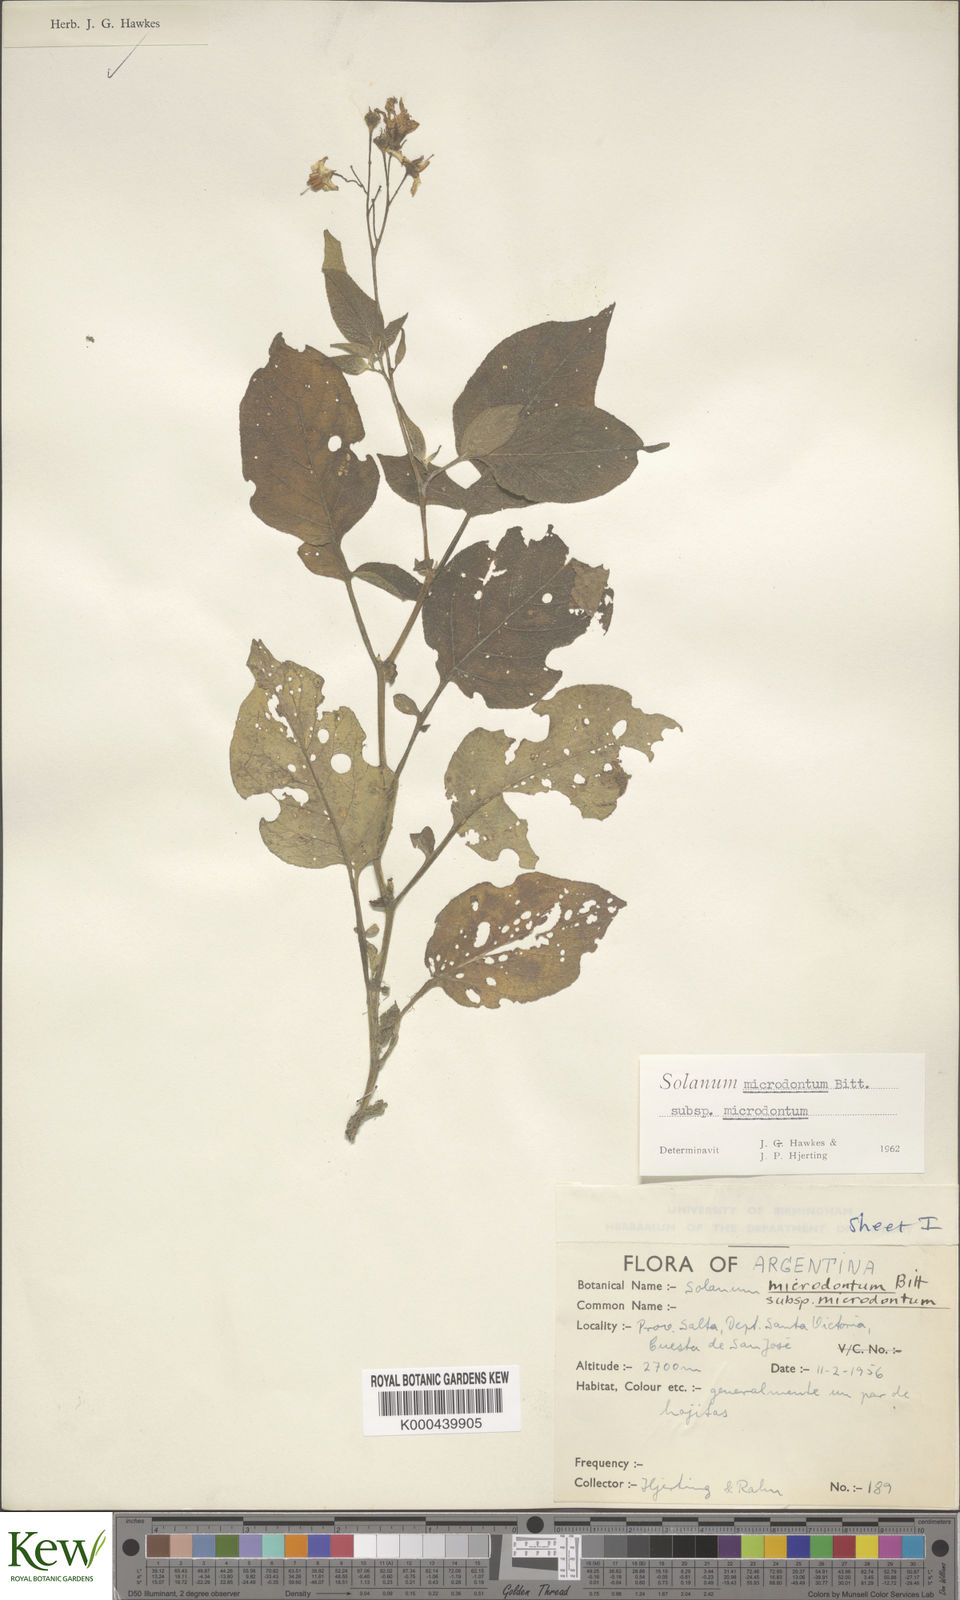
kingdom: Plantae
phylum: Tracheophyta
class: Magnoliopsida
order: Solanales
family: Solanaceae
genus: Solanum
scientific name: Solanum microdontum
